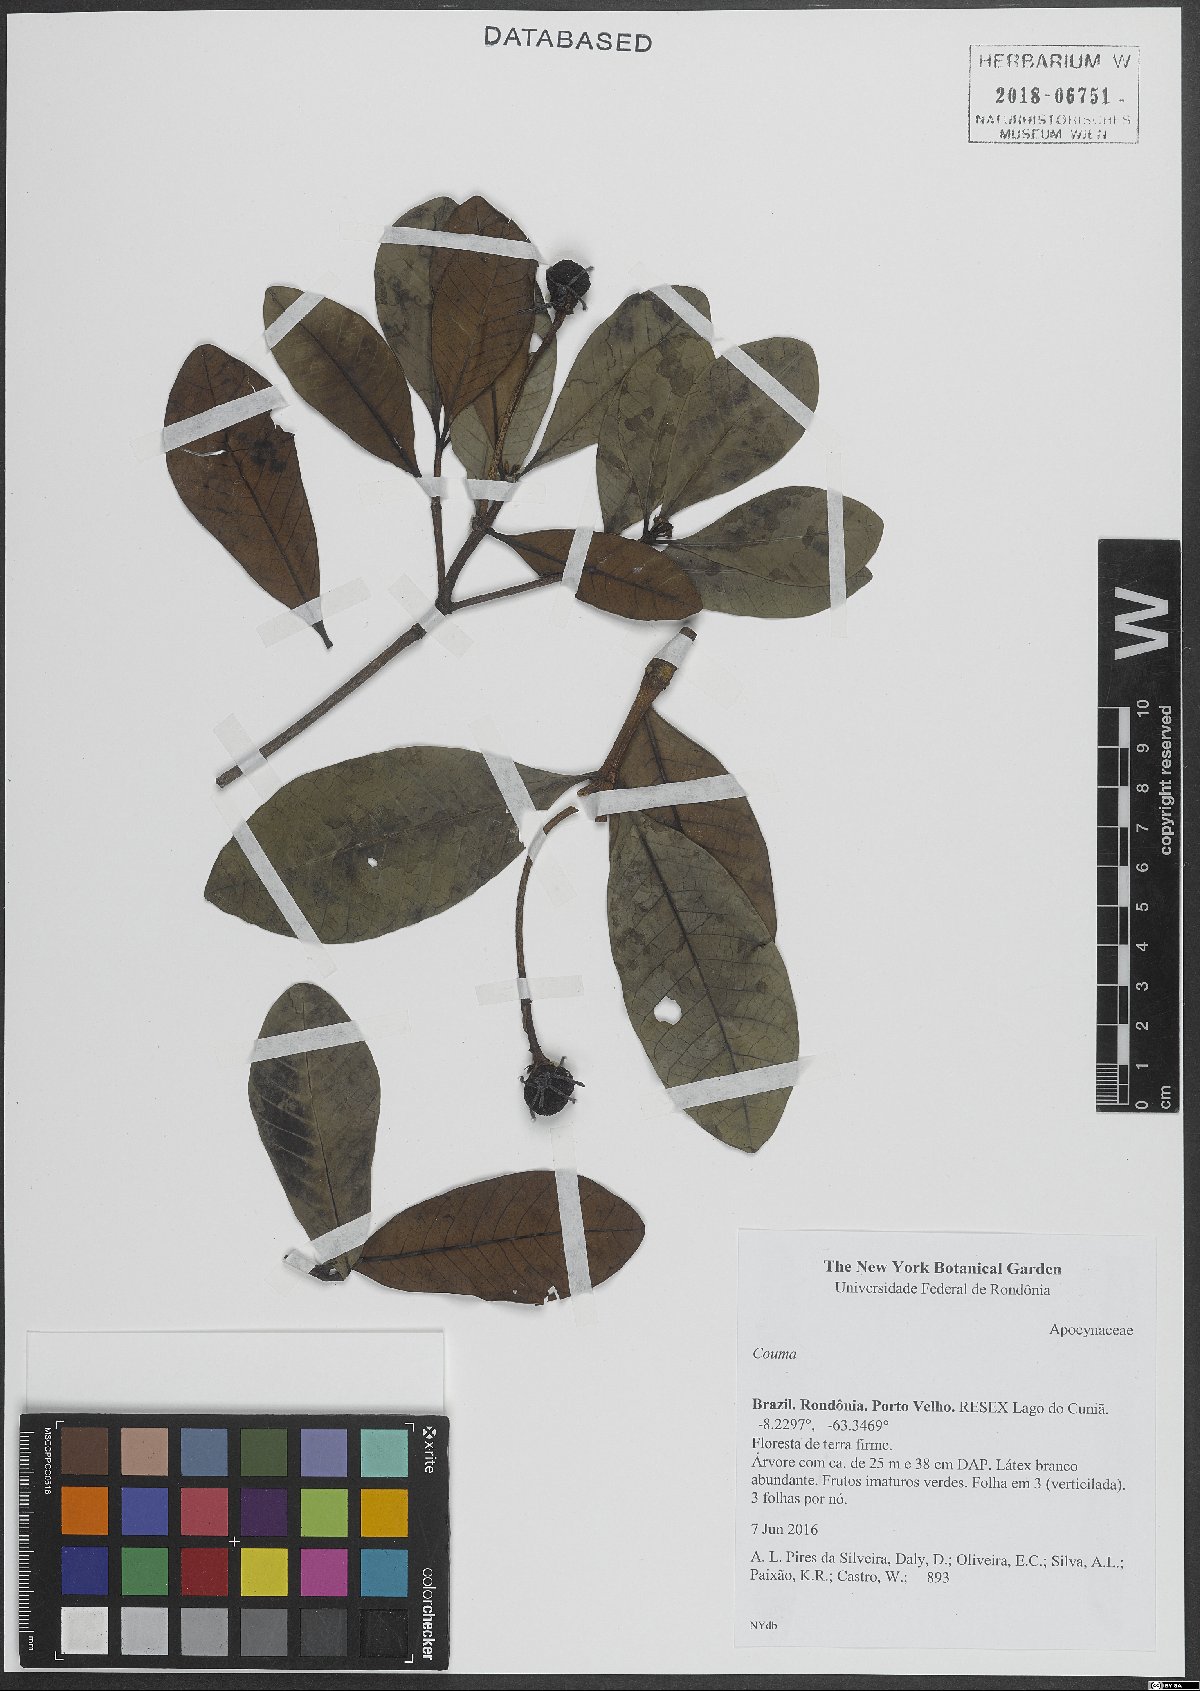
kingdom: Plantae
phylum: Tracheophyta
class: Magnoliopsida
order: Gentianales
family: Apocynaceae
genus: Couma
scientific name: Couma
